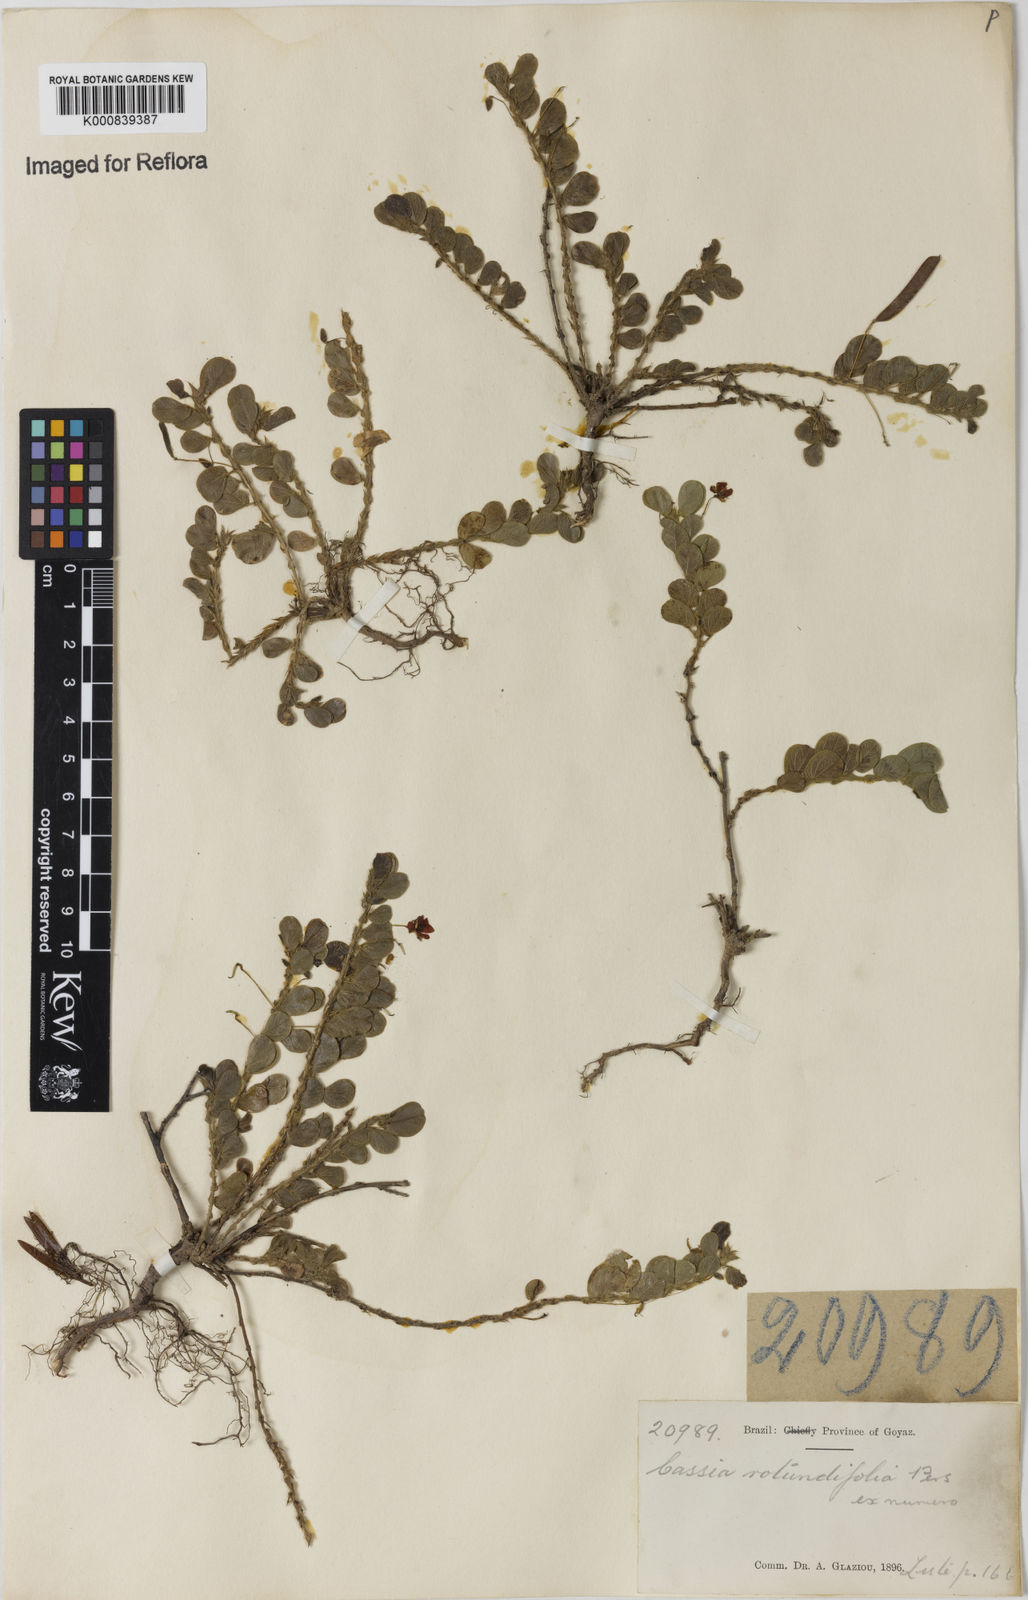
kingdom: Plantae
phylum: Tracheophyta
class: Magnoliopsida
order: Fabales
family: Fabaceae
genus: Chamaecrista
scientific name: Chamaecrista rotundifolia
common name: Round-leaf cassia
